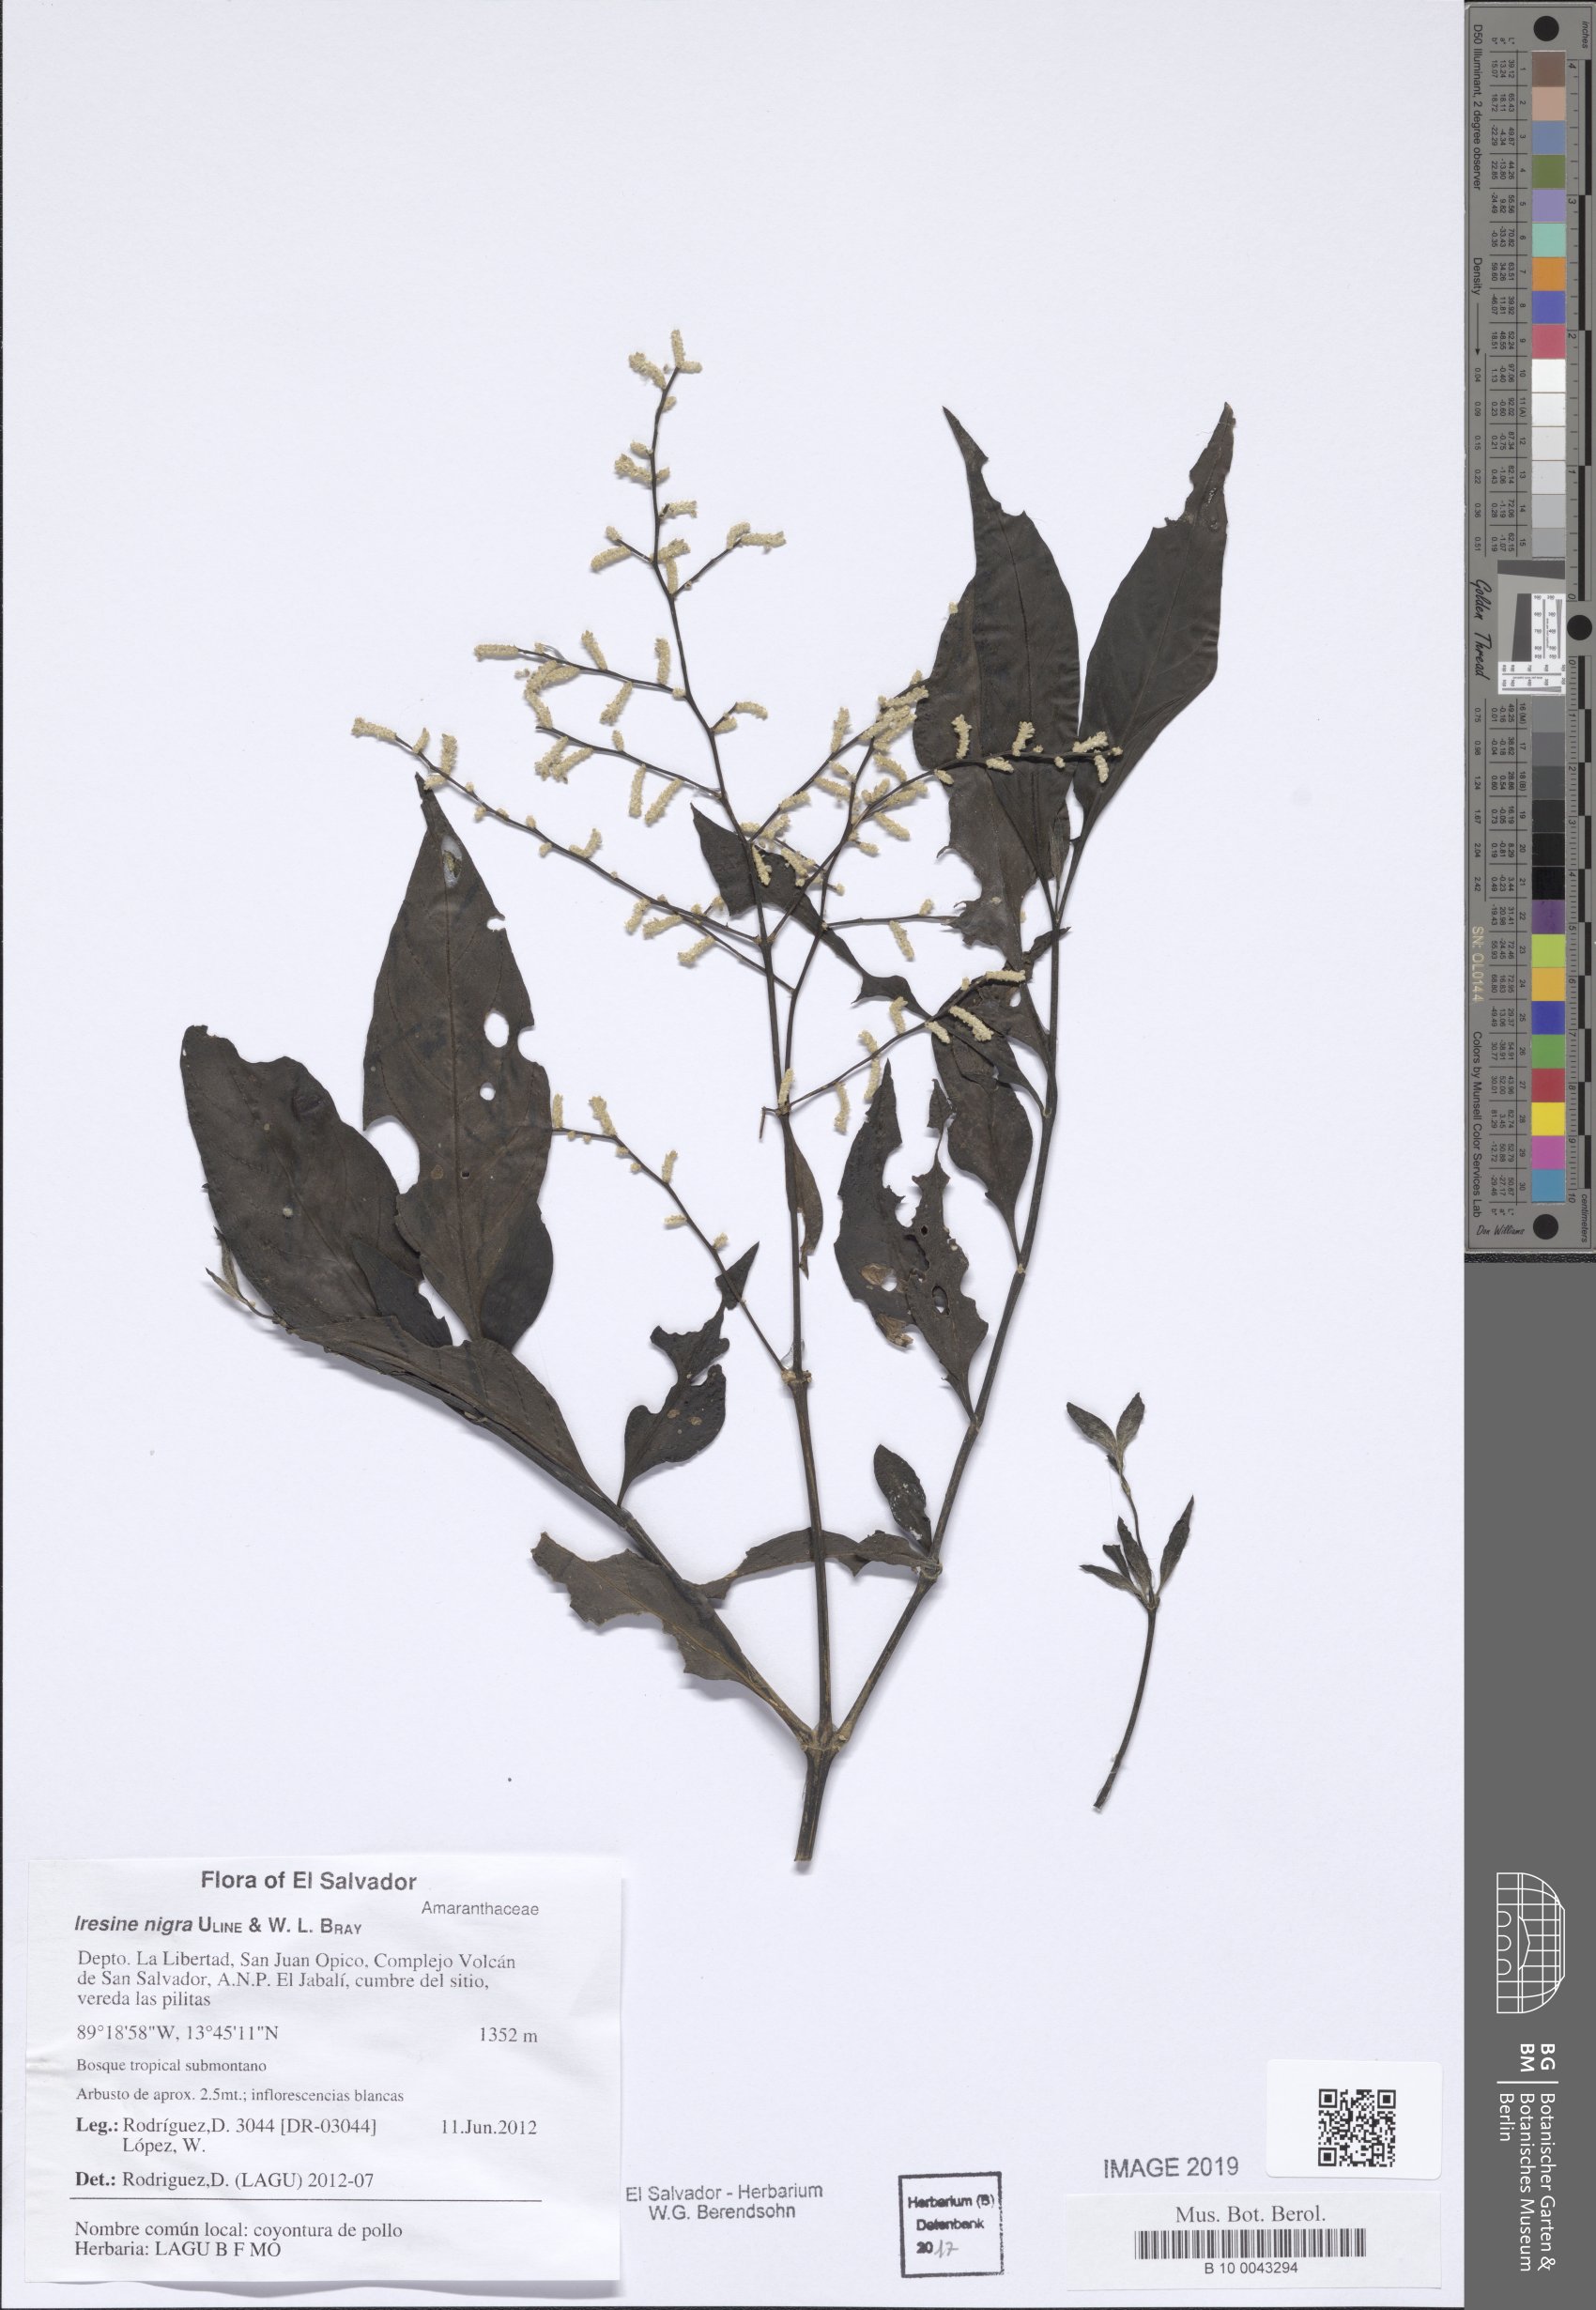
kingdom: Plantae
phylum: Tracheophyta
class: Magnoliopsida
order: Caryophyllales
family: Amaranthaceae
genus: Iresine
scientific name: Iresine nigra
